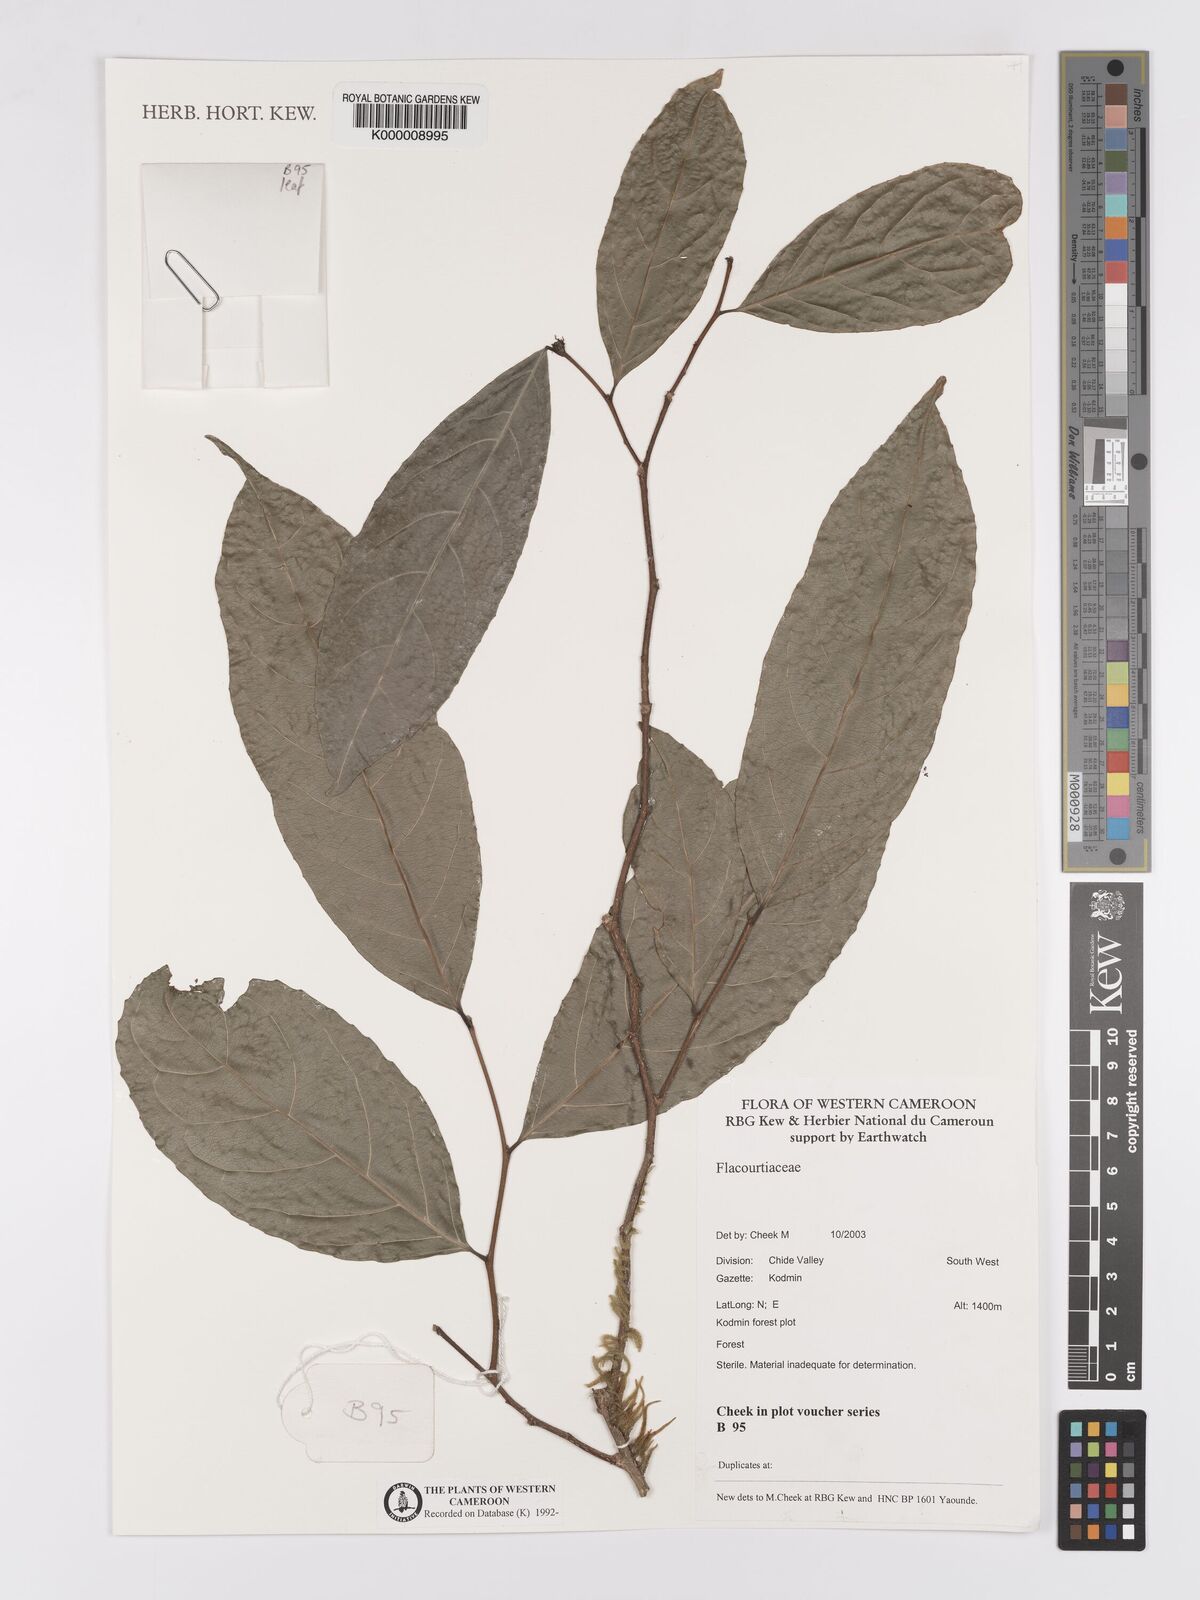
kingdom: Plantae
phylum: Tracheophyta
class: Magnoliopsida
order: Malpighiales
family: Flacourtiaceae
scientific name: Flacourtiaceae
